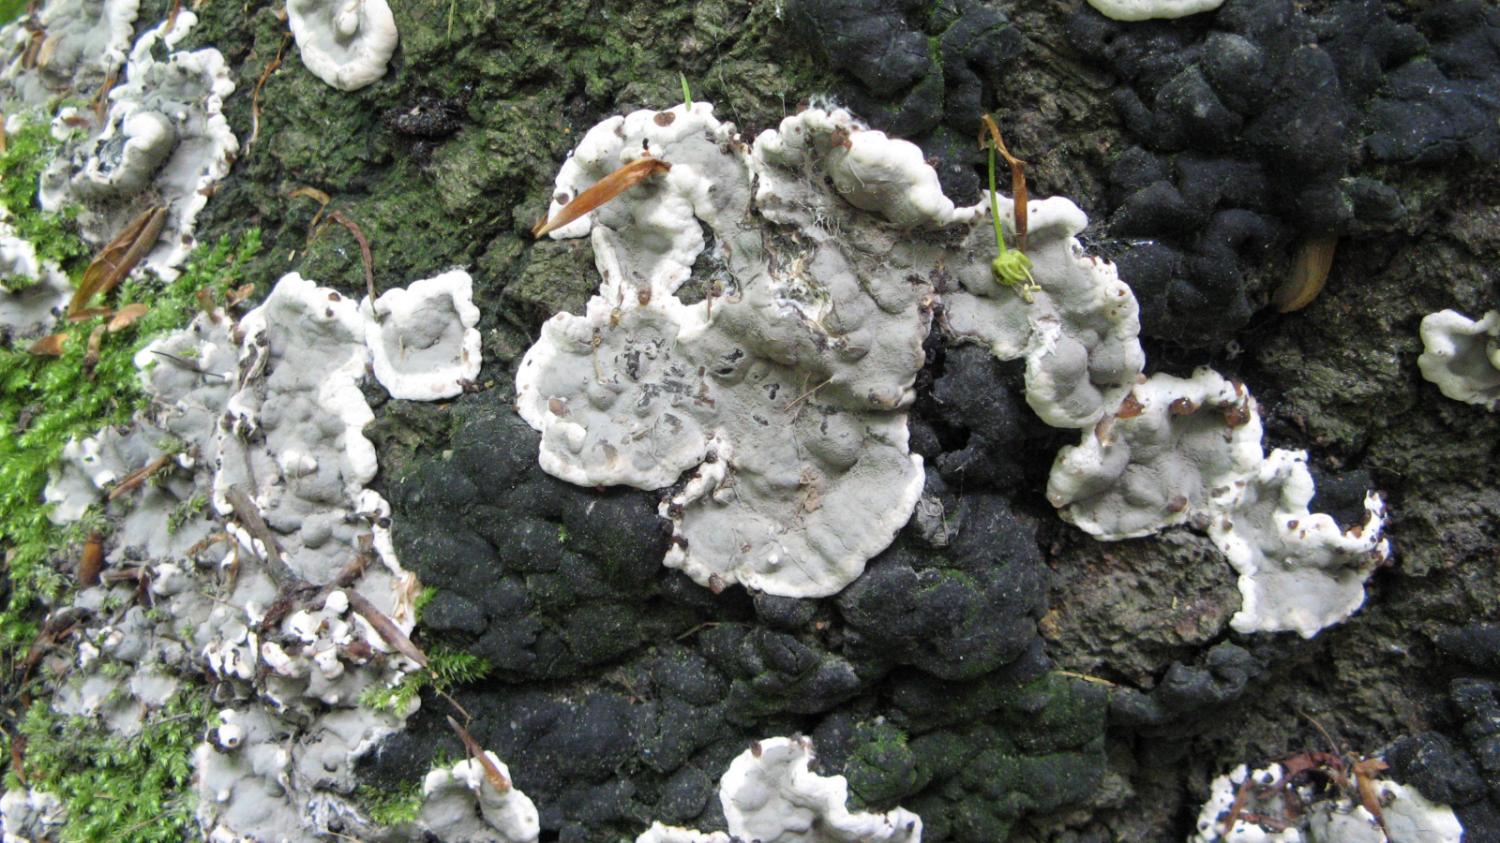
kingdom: Fungi
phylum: Ascomycota
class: Sordariomycetes
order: Xylariales
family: Xylariaceae
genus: Kretzschmaria
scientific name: Kretzschmaria deusta
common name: stor kulsvamp
